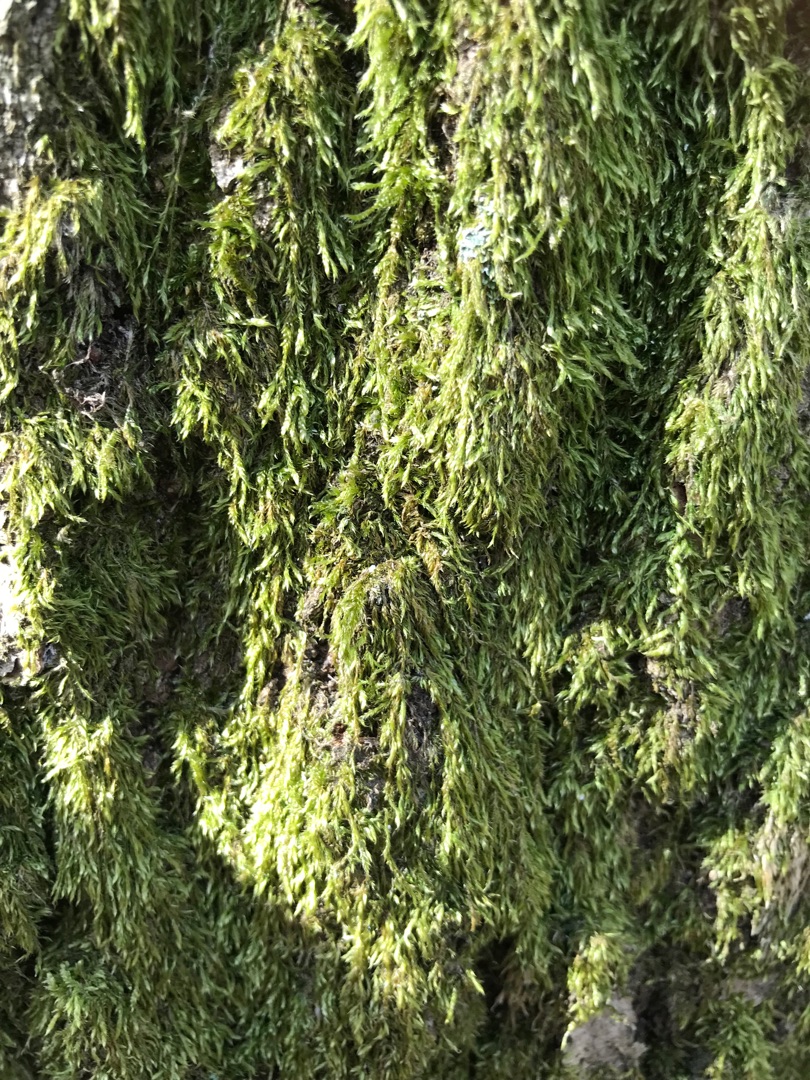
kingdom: Plantae
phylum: Bryophyta
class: Bryopsida
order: Hypnales
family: Hypnaceae
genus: Hypnum
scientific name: Hypnum
